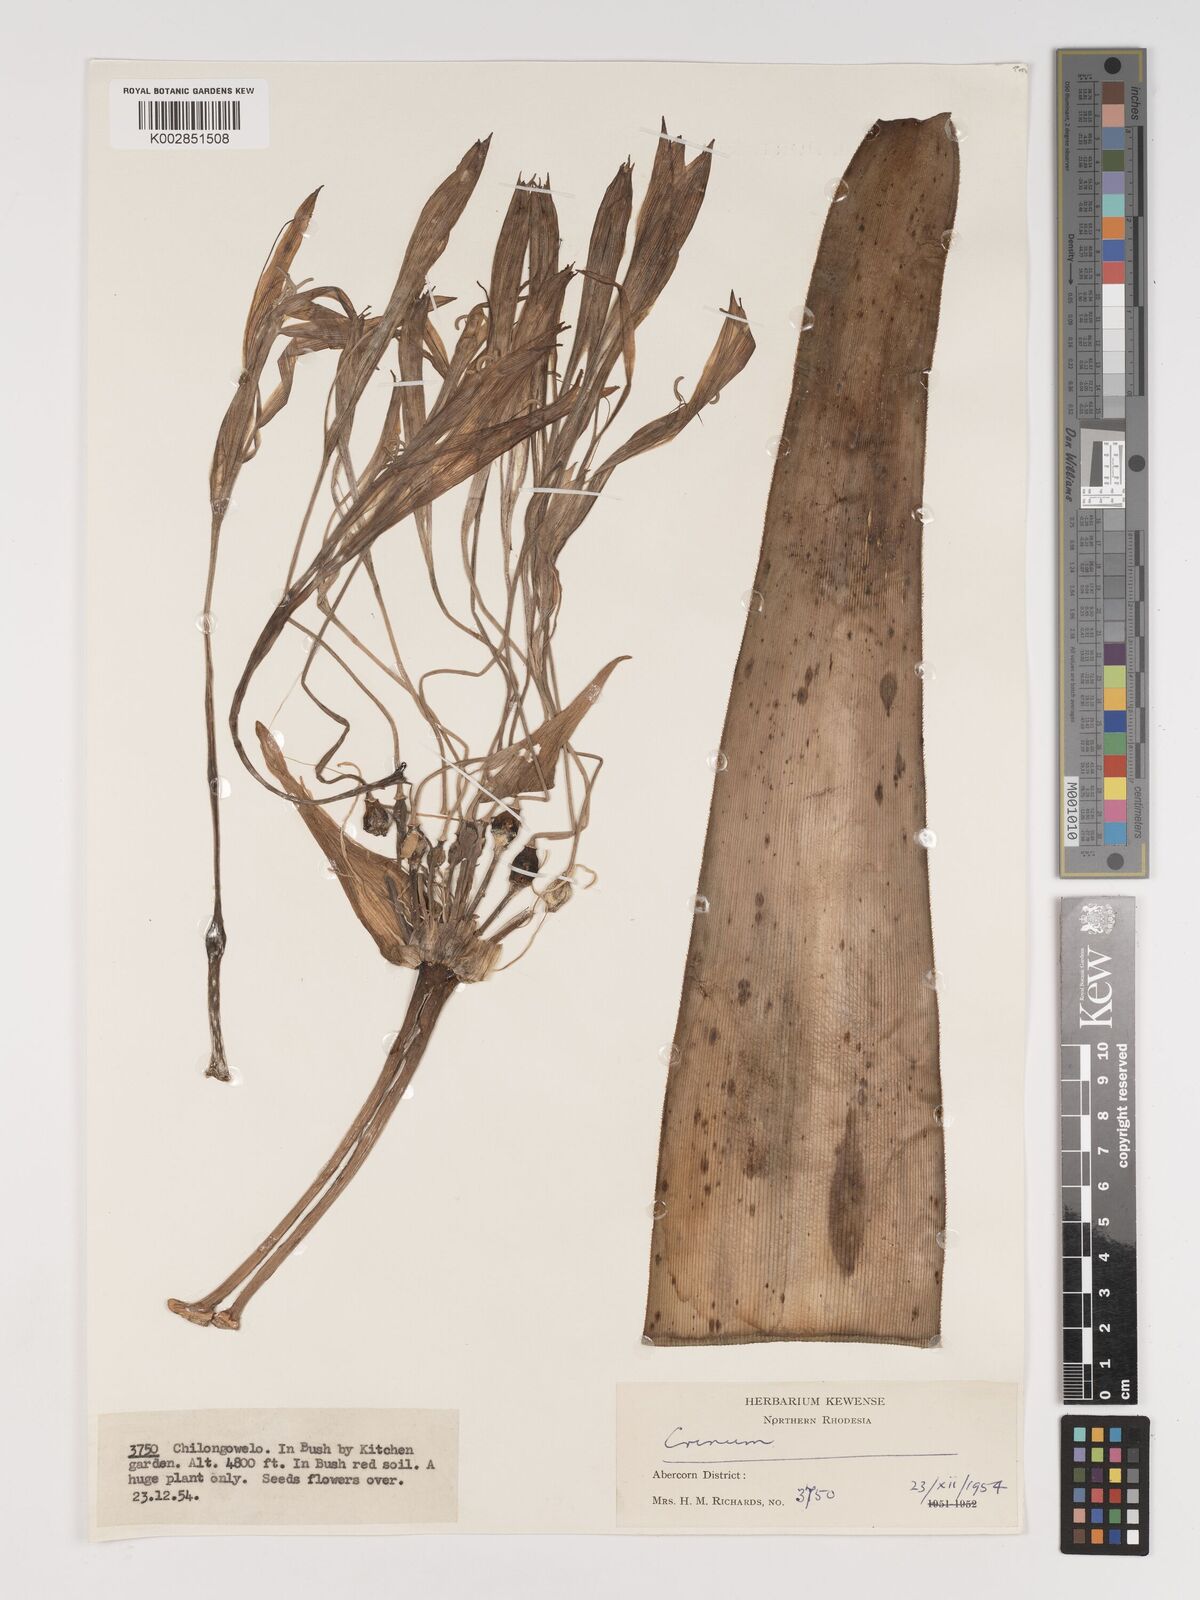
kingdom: Plantae
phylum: Tracheophyta
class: Liliopsida
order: Asparagales
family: Amaryllidaceae
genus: Crinum
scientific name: Crinum stuhlmannii
